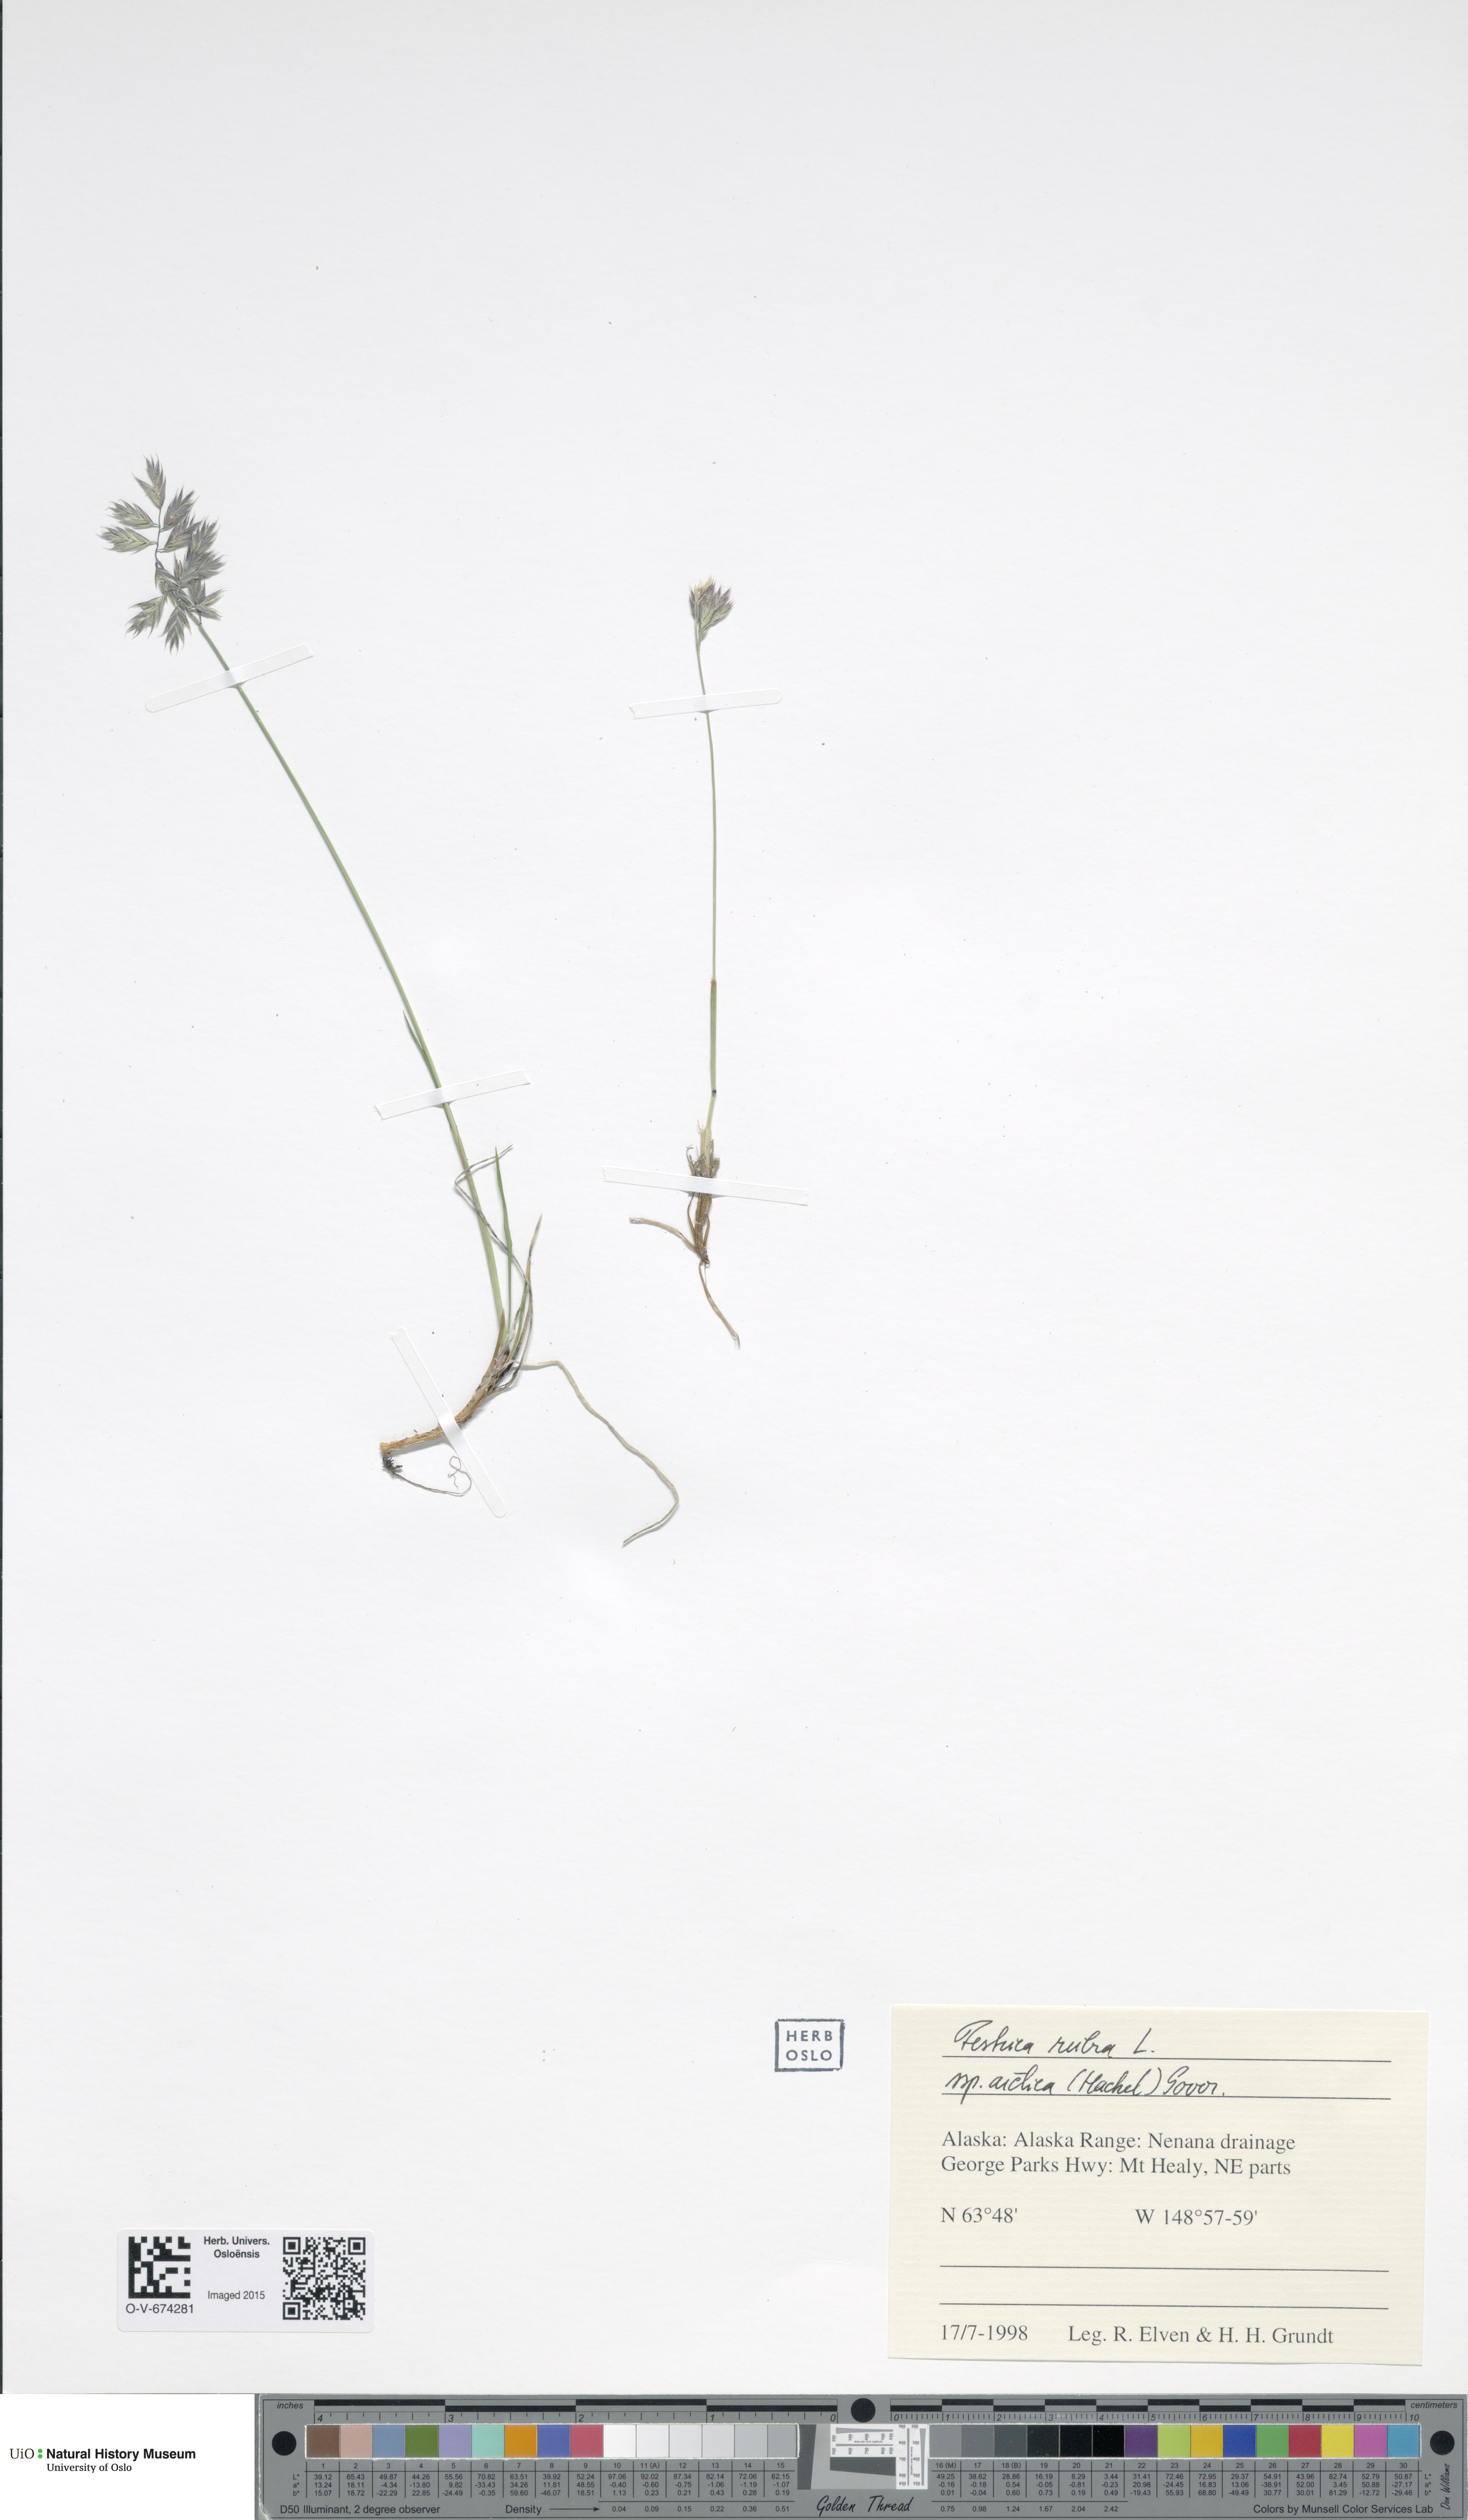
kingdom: Plantae
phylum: Tracheophyta
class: Liliopsida
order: Poales
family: Poaceae
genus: Festuca
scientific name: Festuca richardsonii
